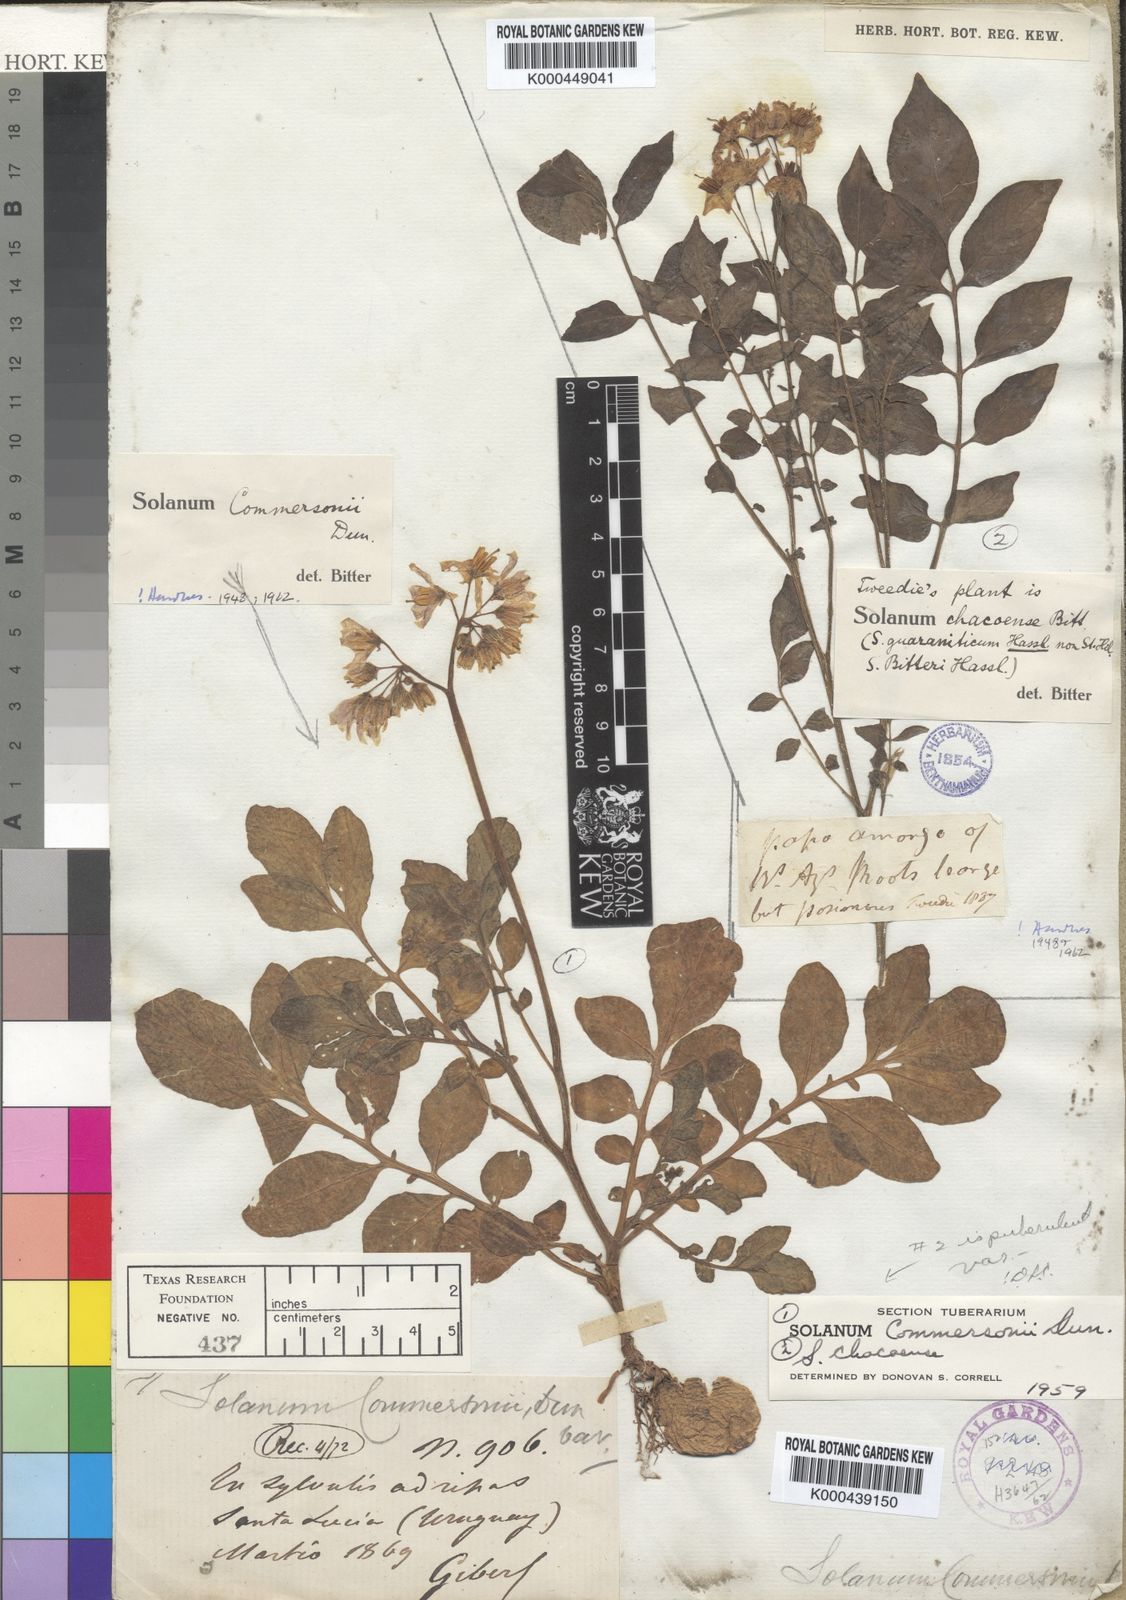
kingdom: Plantae
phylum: Tracheophyta
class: Magnoliopsida
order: Solanales
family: Solanaceae
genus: Solanum
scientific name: Solanum chacoense
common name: Chaco potato
